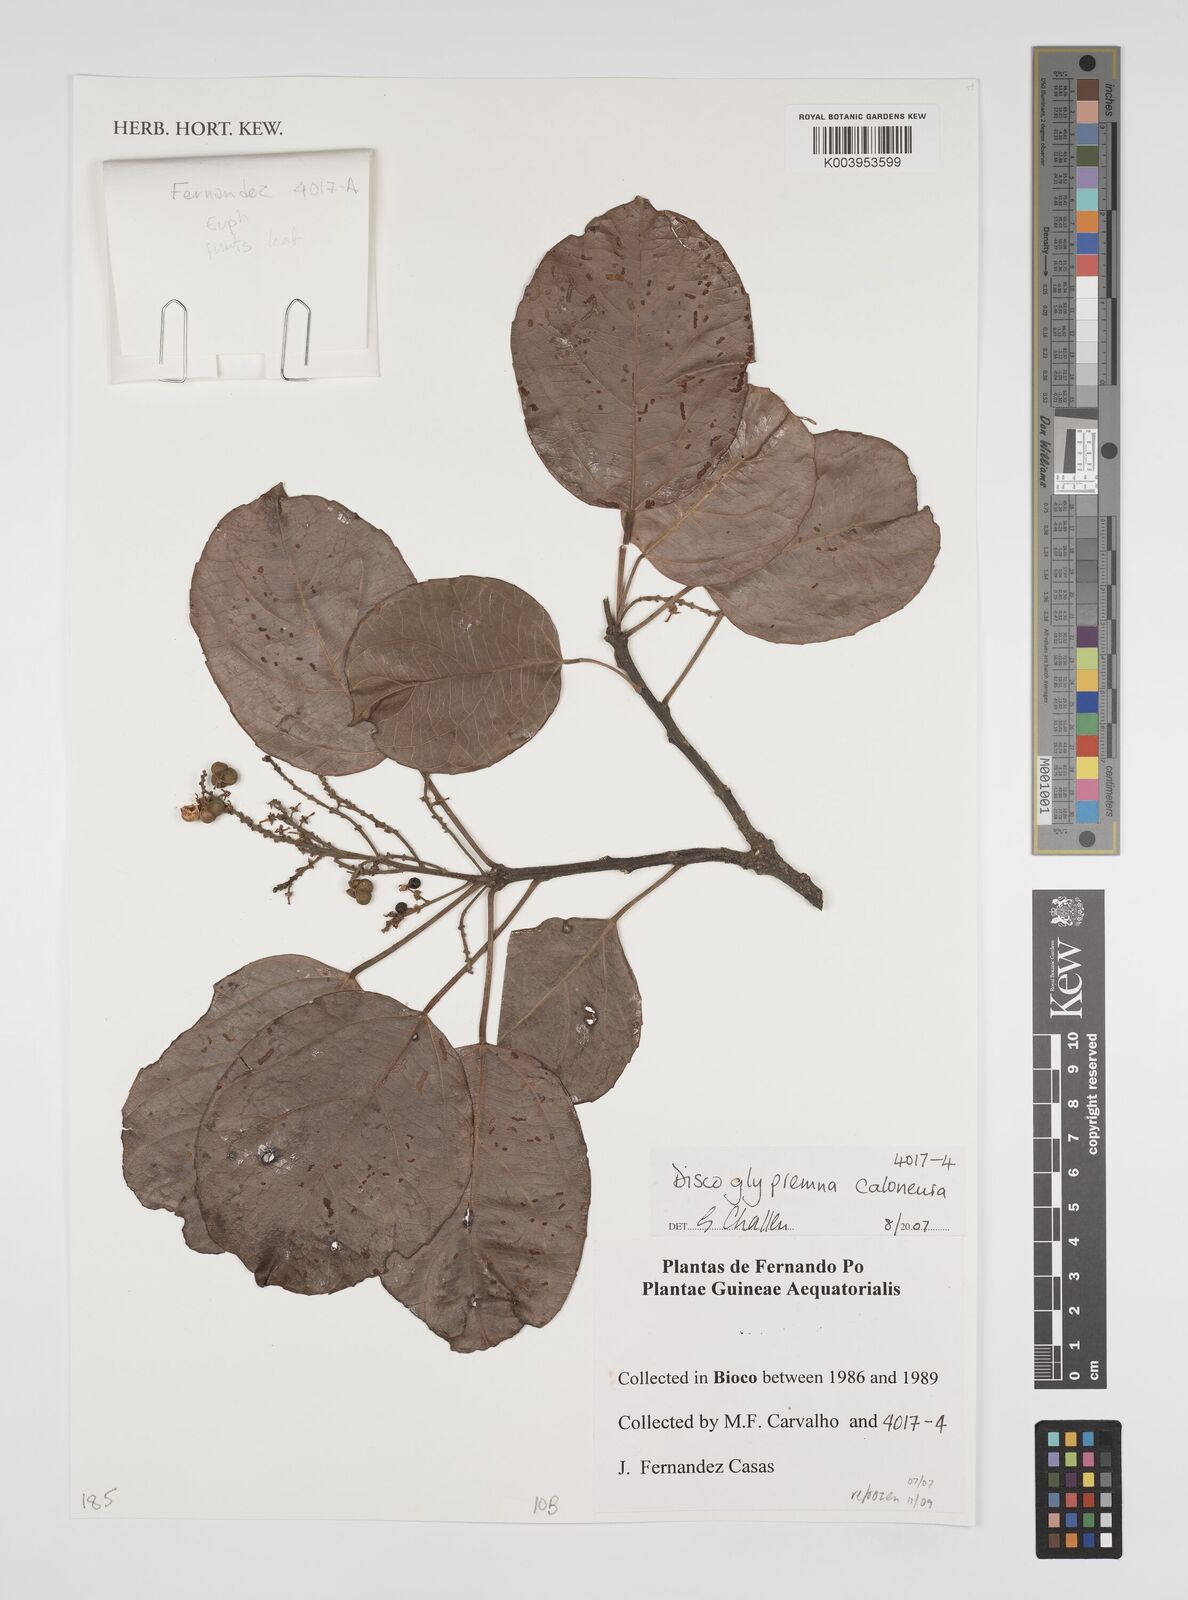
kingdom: Plantae
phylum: Tracheophyta
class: Magnoliopsida
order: Malpighiales
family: Euphorbiaceae
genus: Discoglypremna
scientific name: Discoglypremna caloneura
